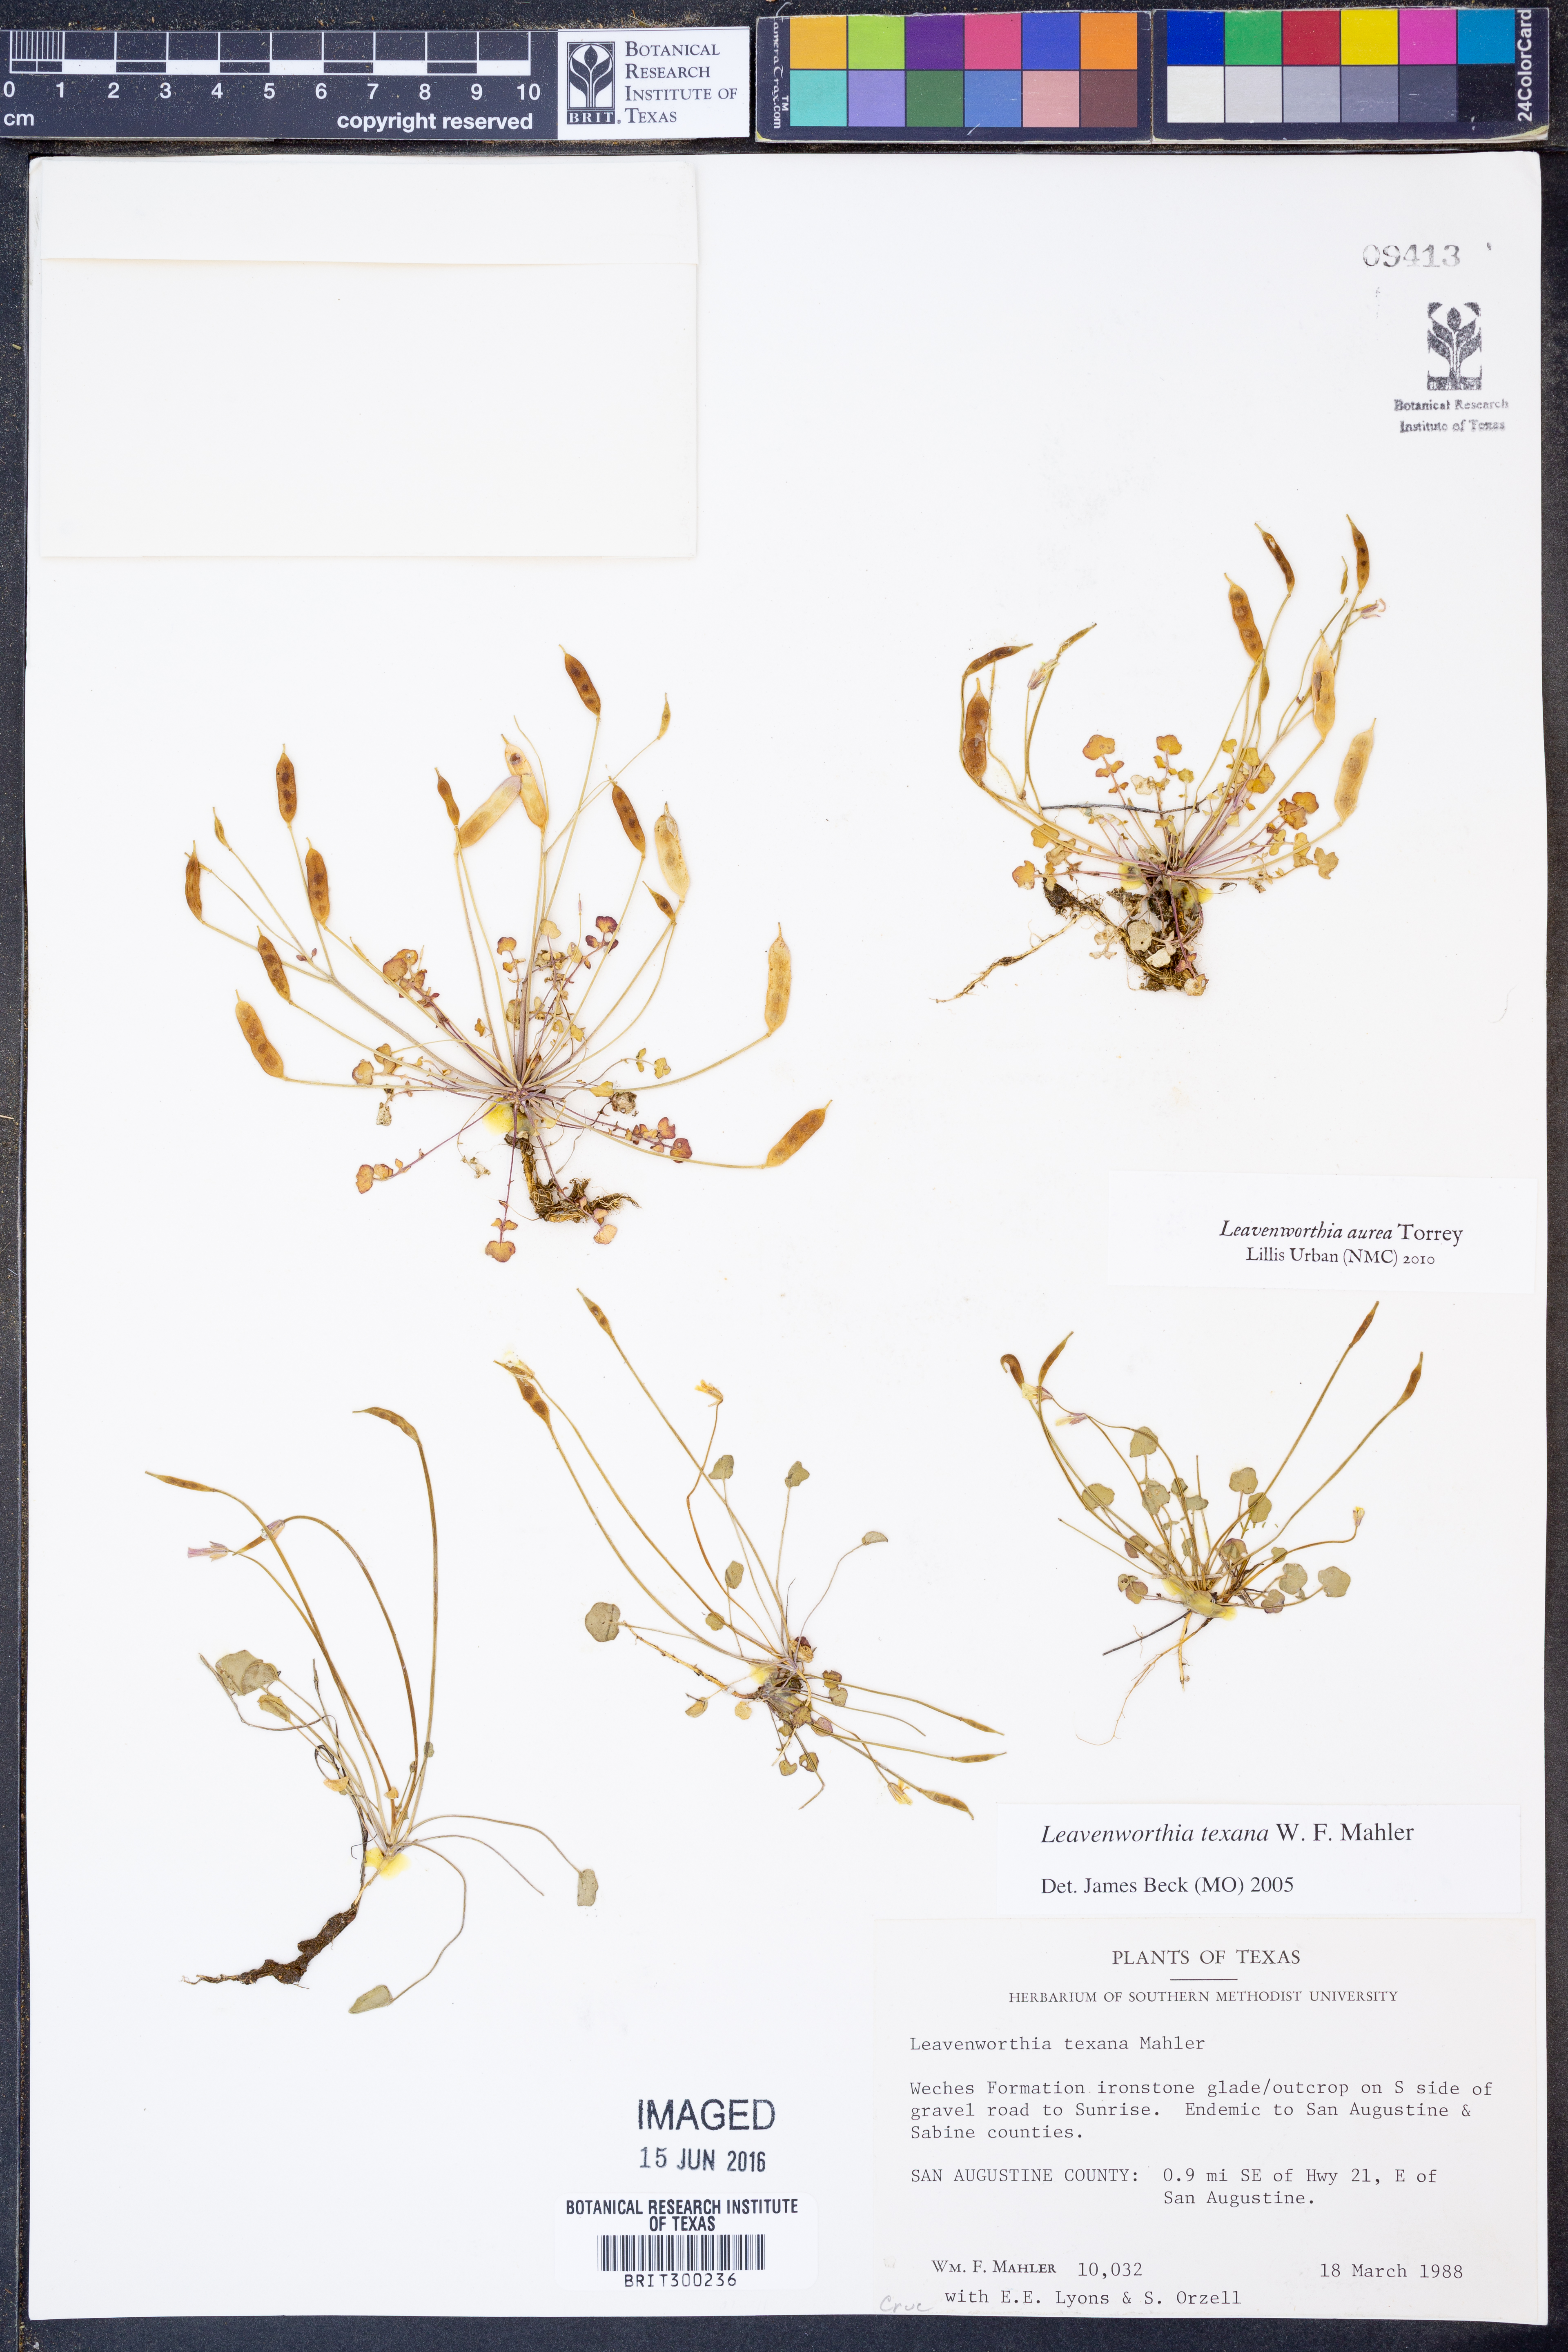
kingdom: Plantae
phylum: Tracheophyta
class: Magnoliopsida
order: Brassicales
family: Brassicaceae
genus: Leavenworthia
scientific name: Leavenworthia aurea
